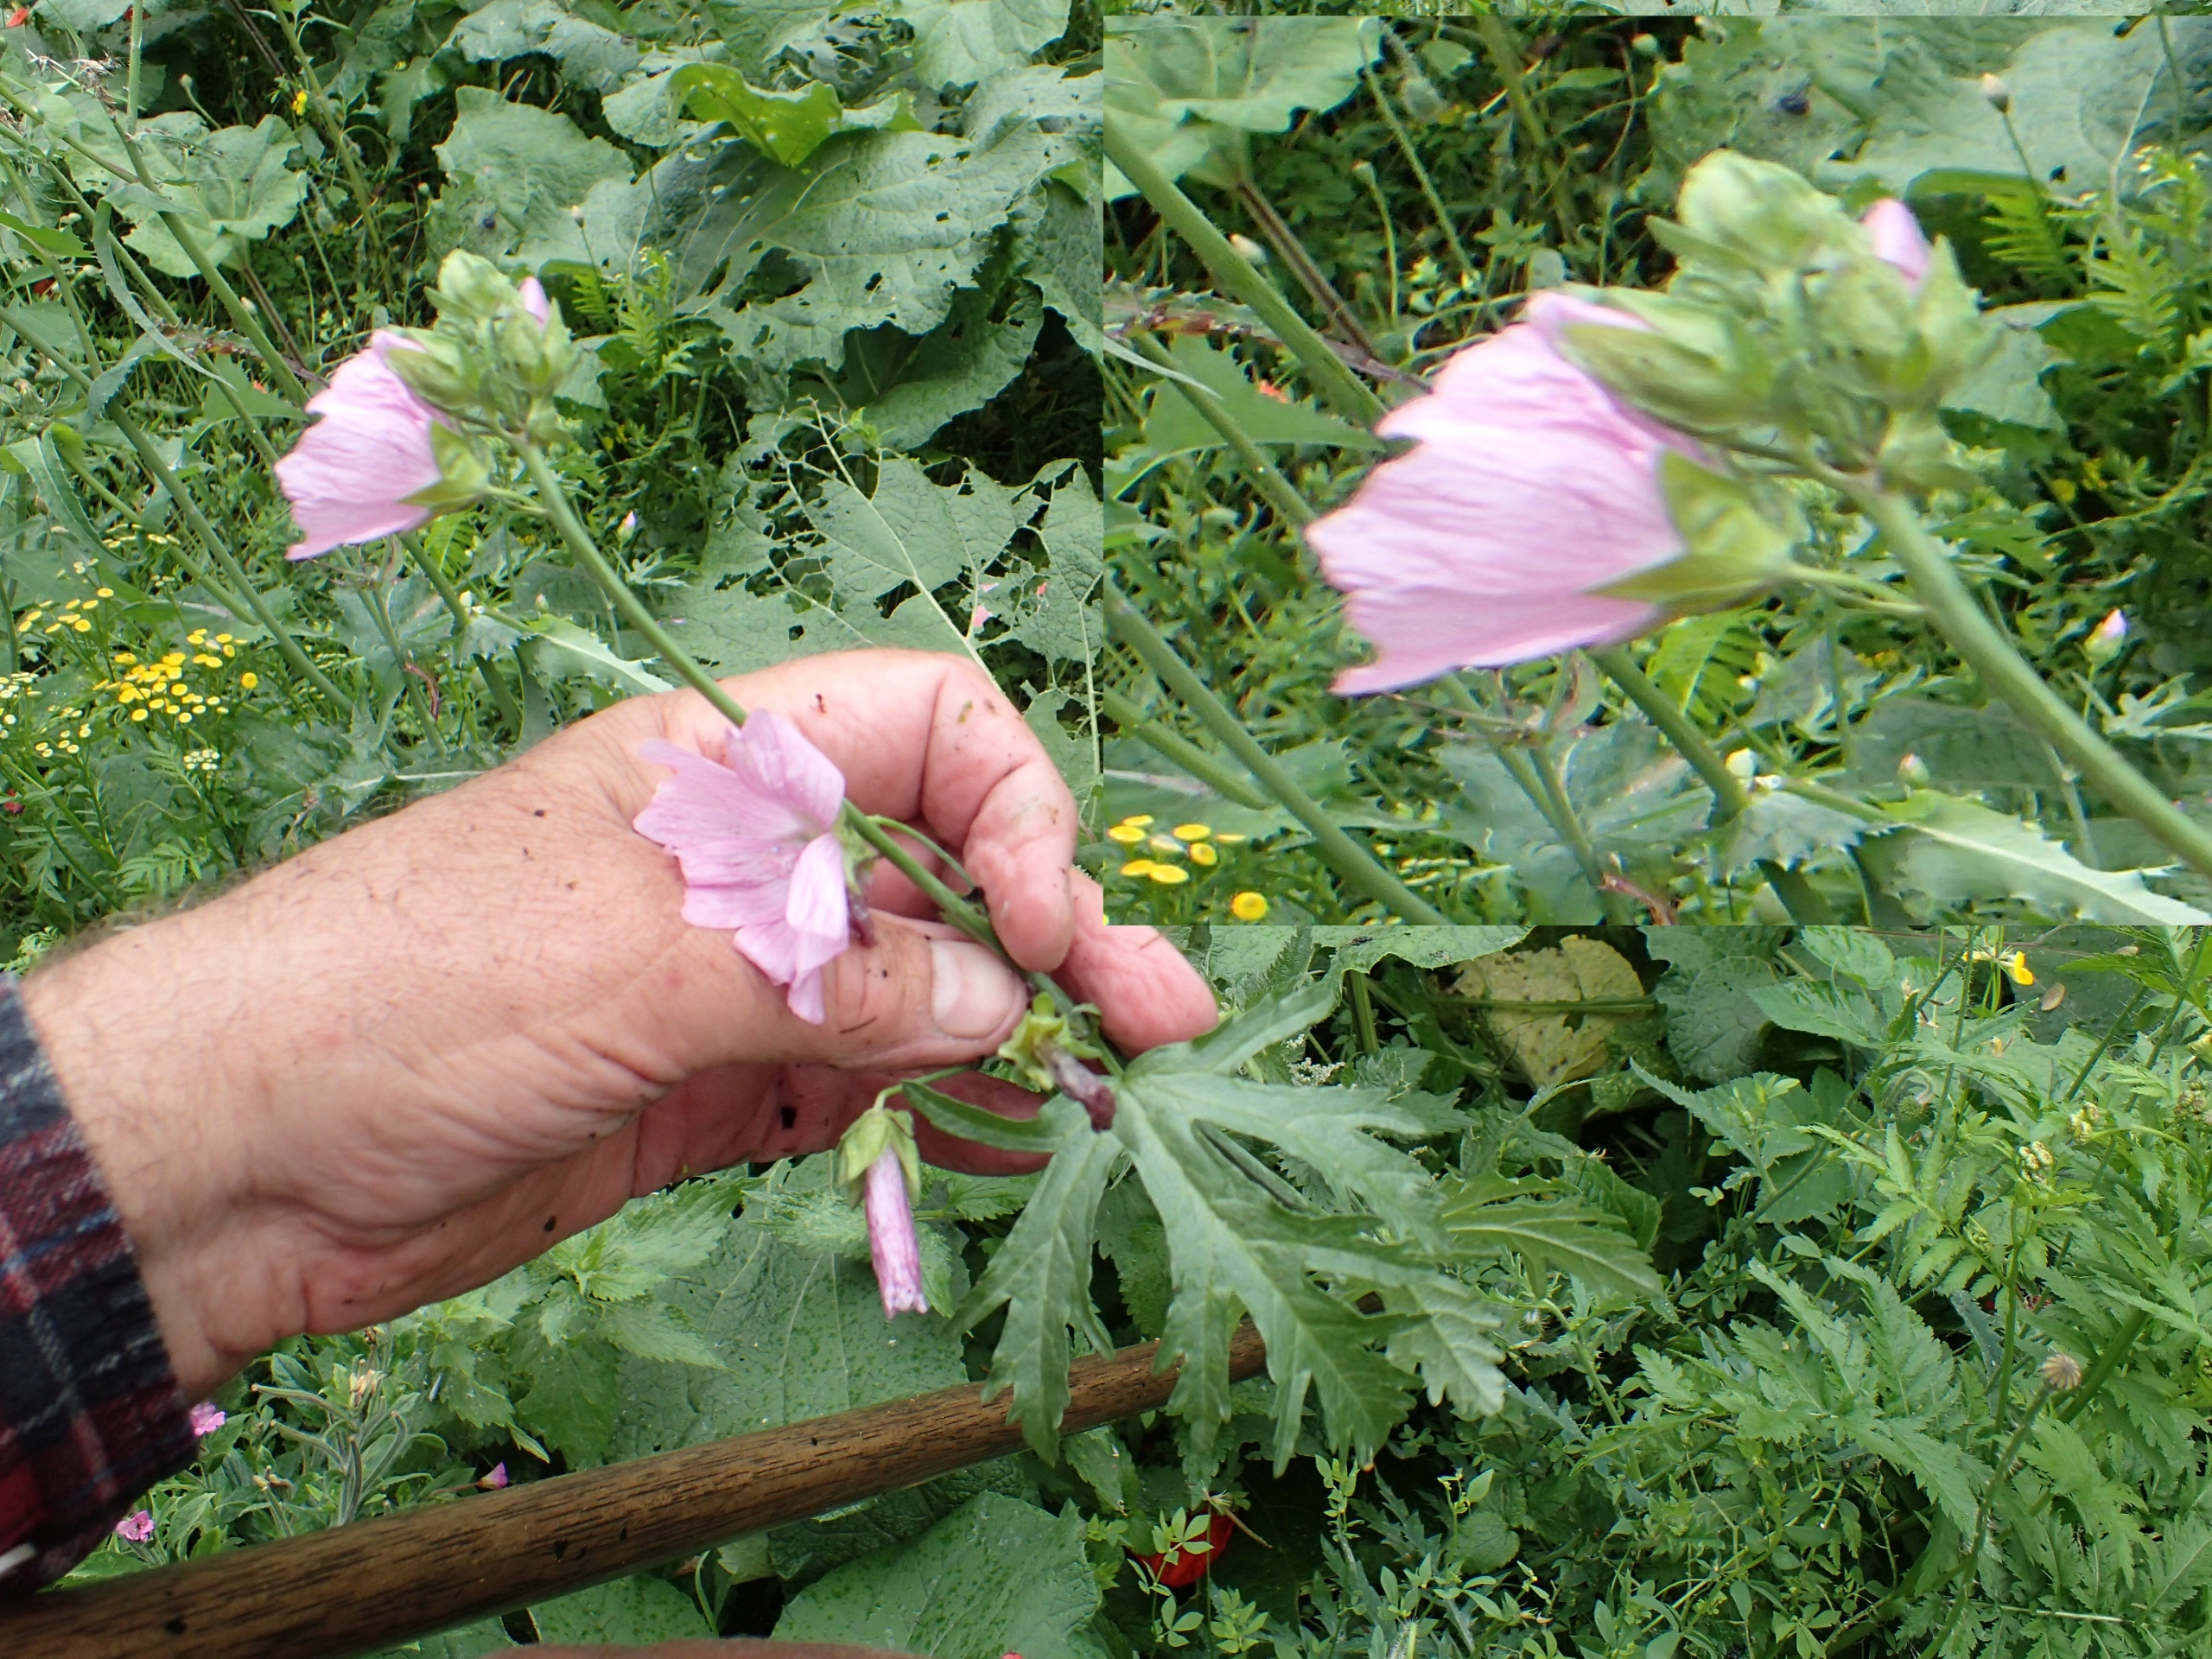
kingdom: Plantae
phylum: Tracheophyta
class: Magnoliopsida
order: Malvales
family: Malvaceae
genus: Malva
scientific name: Malva moschata
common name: Moskus-katost
